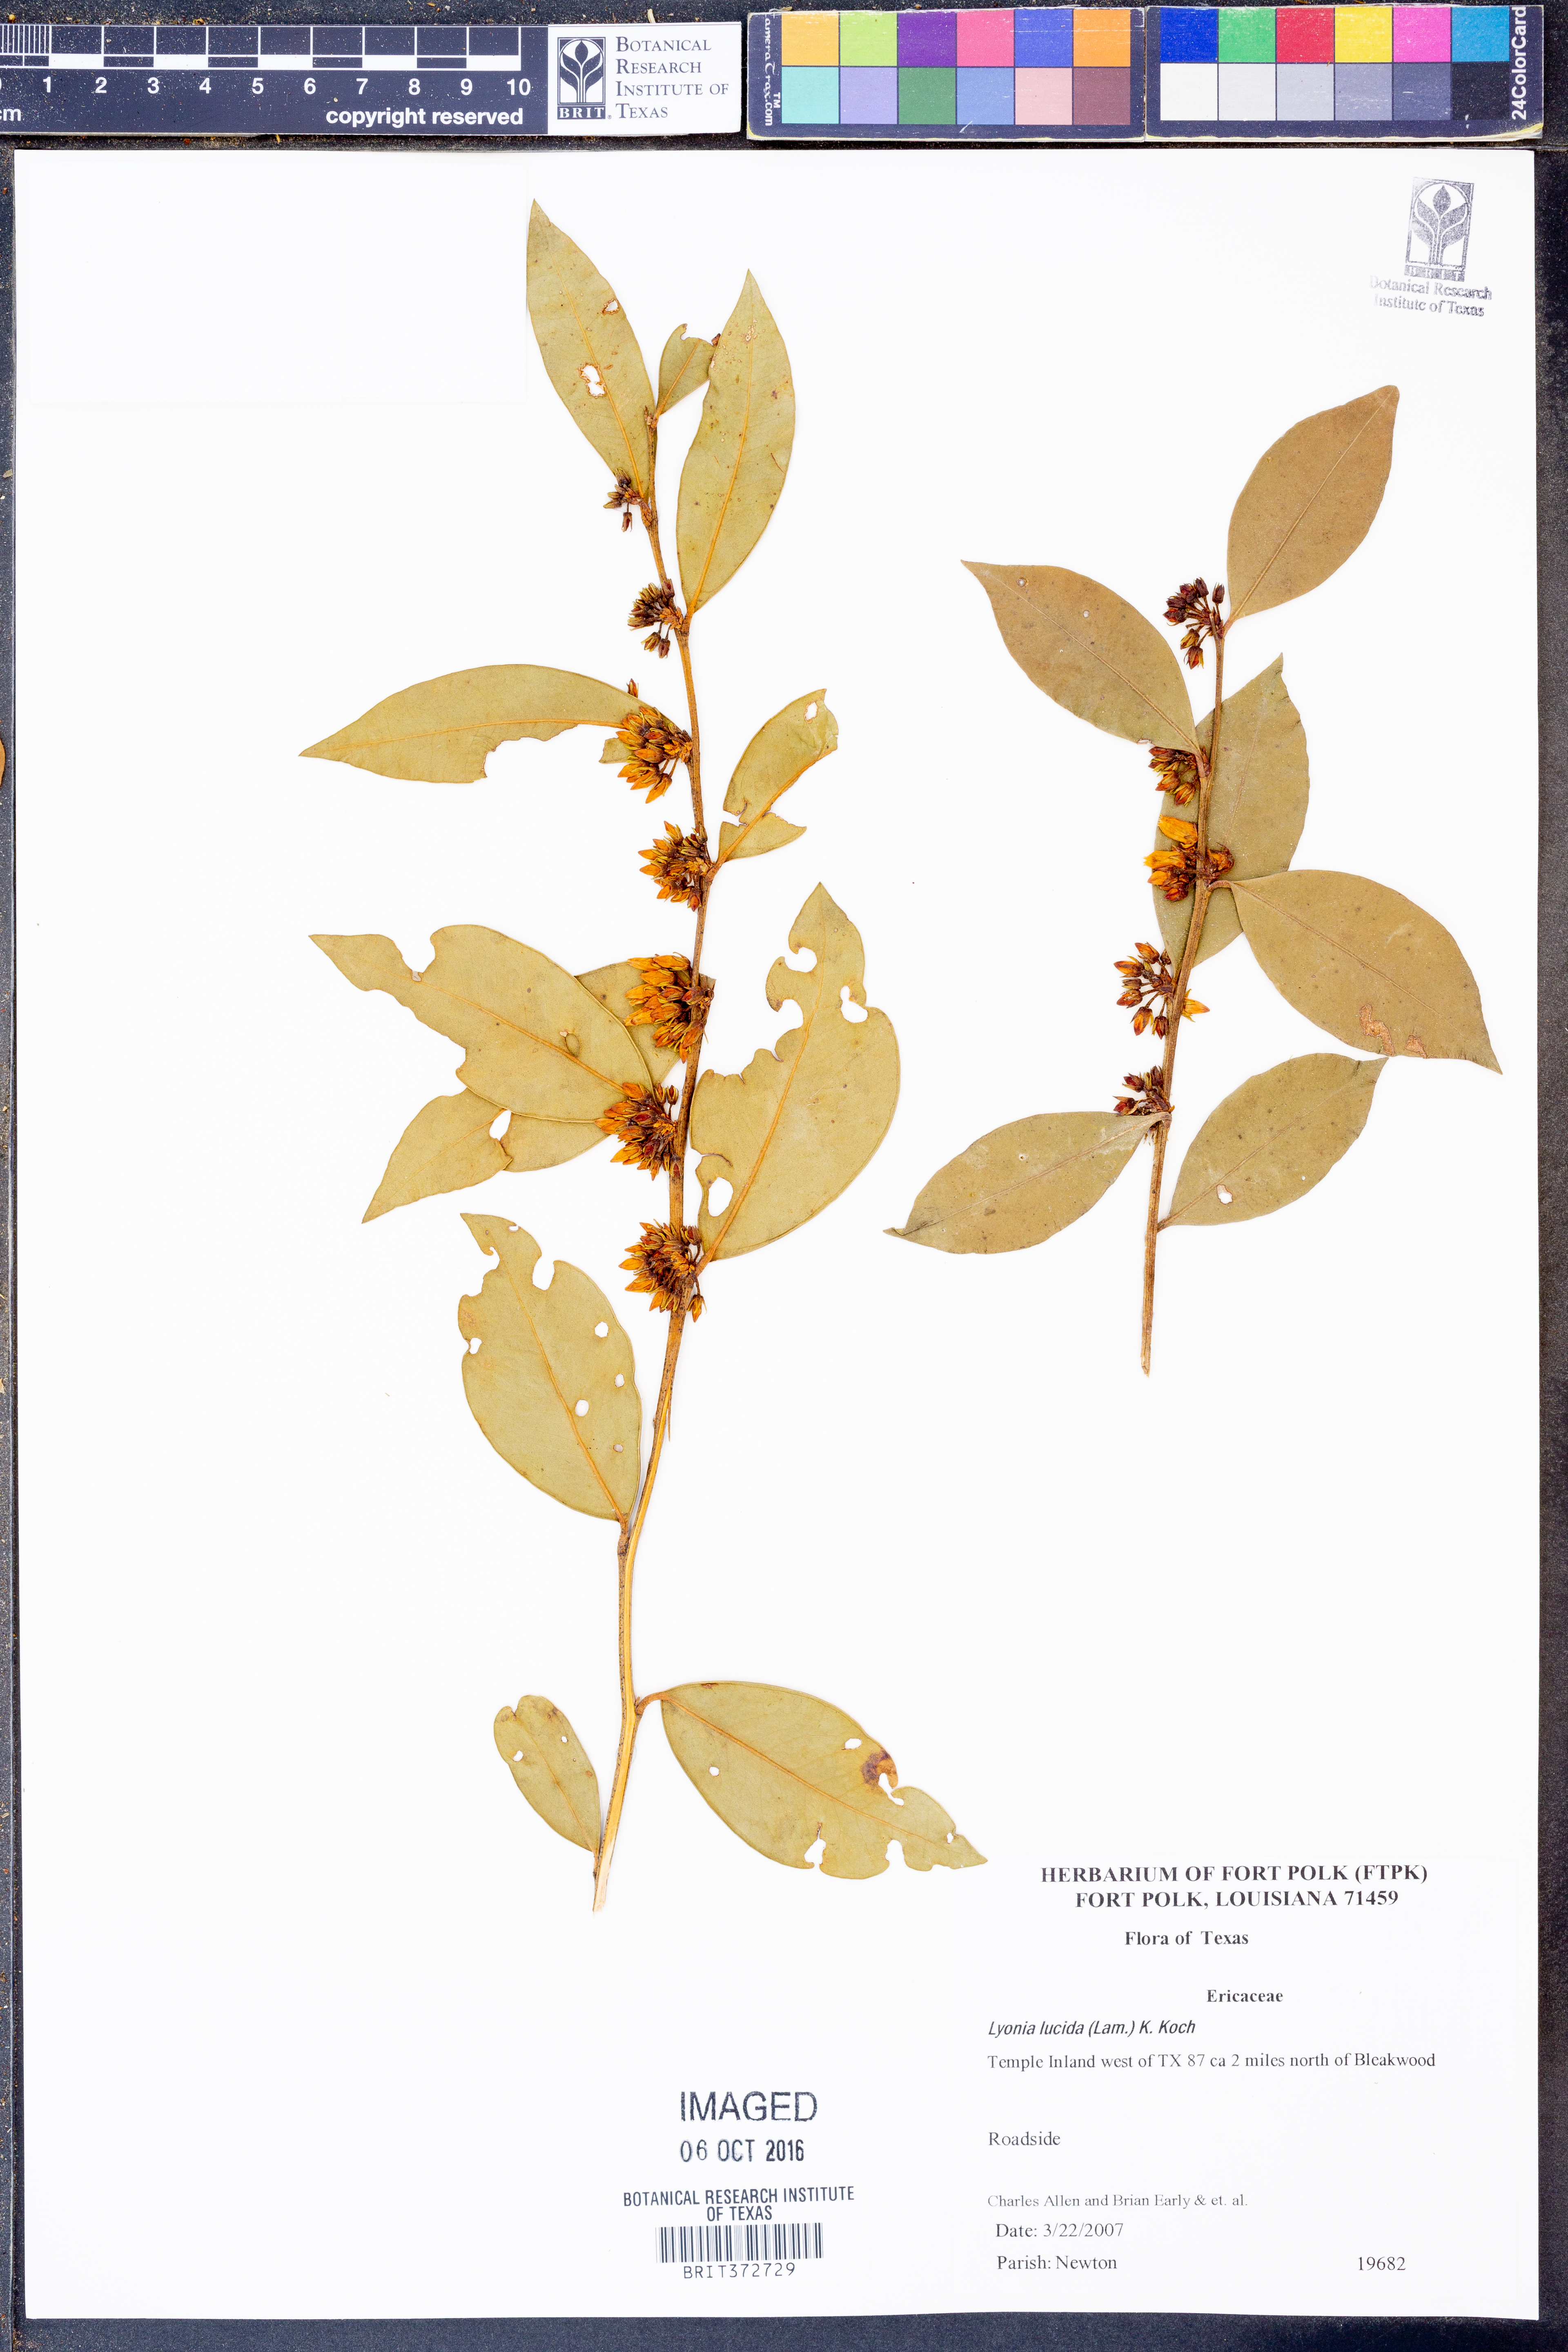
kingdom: Plantae
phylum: Tracheophyta
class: Magnoliopsida
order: Ericales
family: Ericaceae
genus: Lyonia
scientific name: Lyonia lucida
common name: Fetterbush
